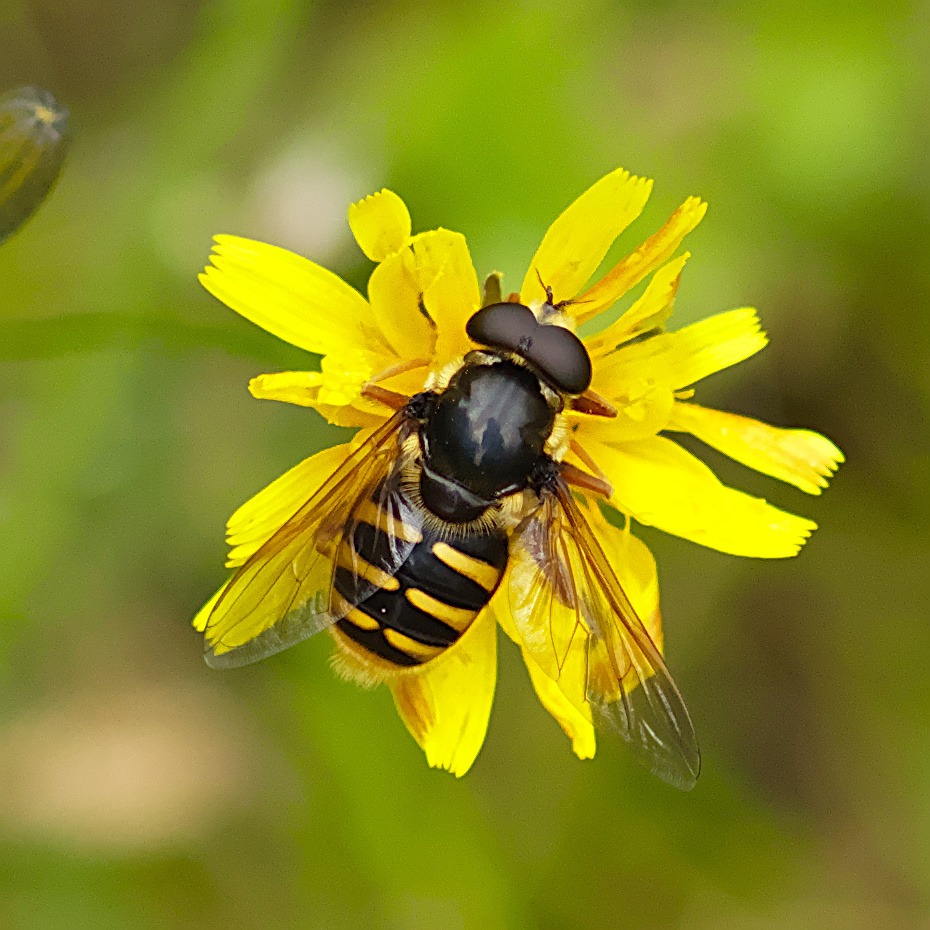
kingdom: Animalia
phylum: Arthropoda
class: Insecta
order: Diptera
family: Syrphidae
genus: Sericomyia
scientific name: Sericomyia silentis
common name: Tørve-silkesvirreflue
